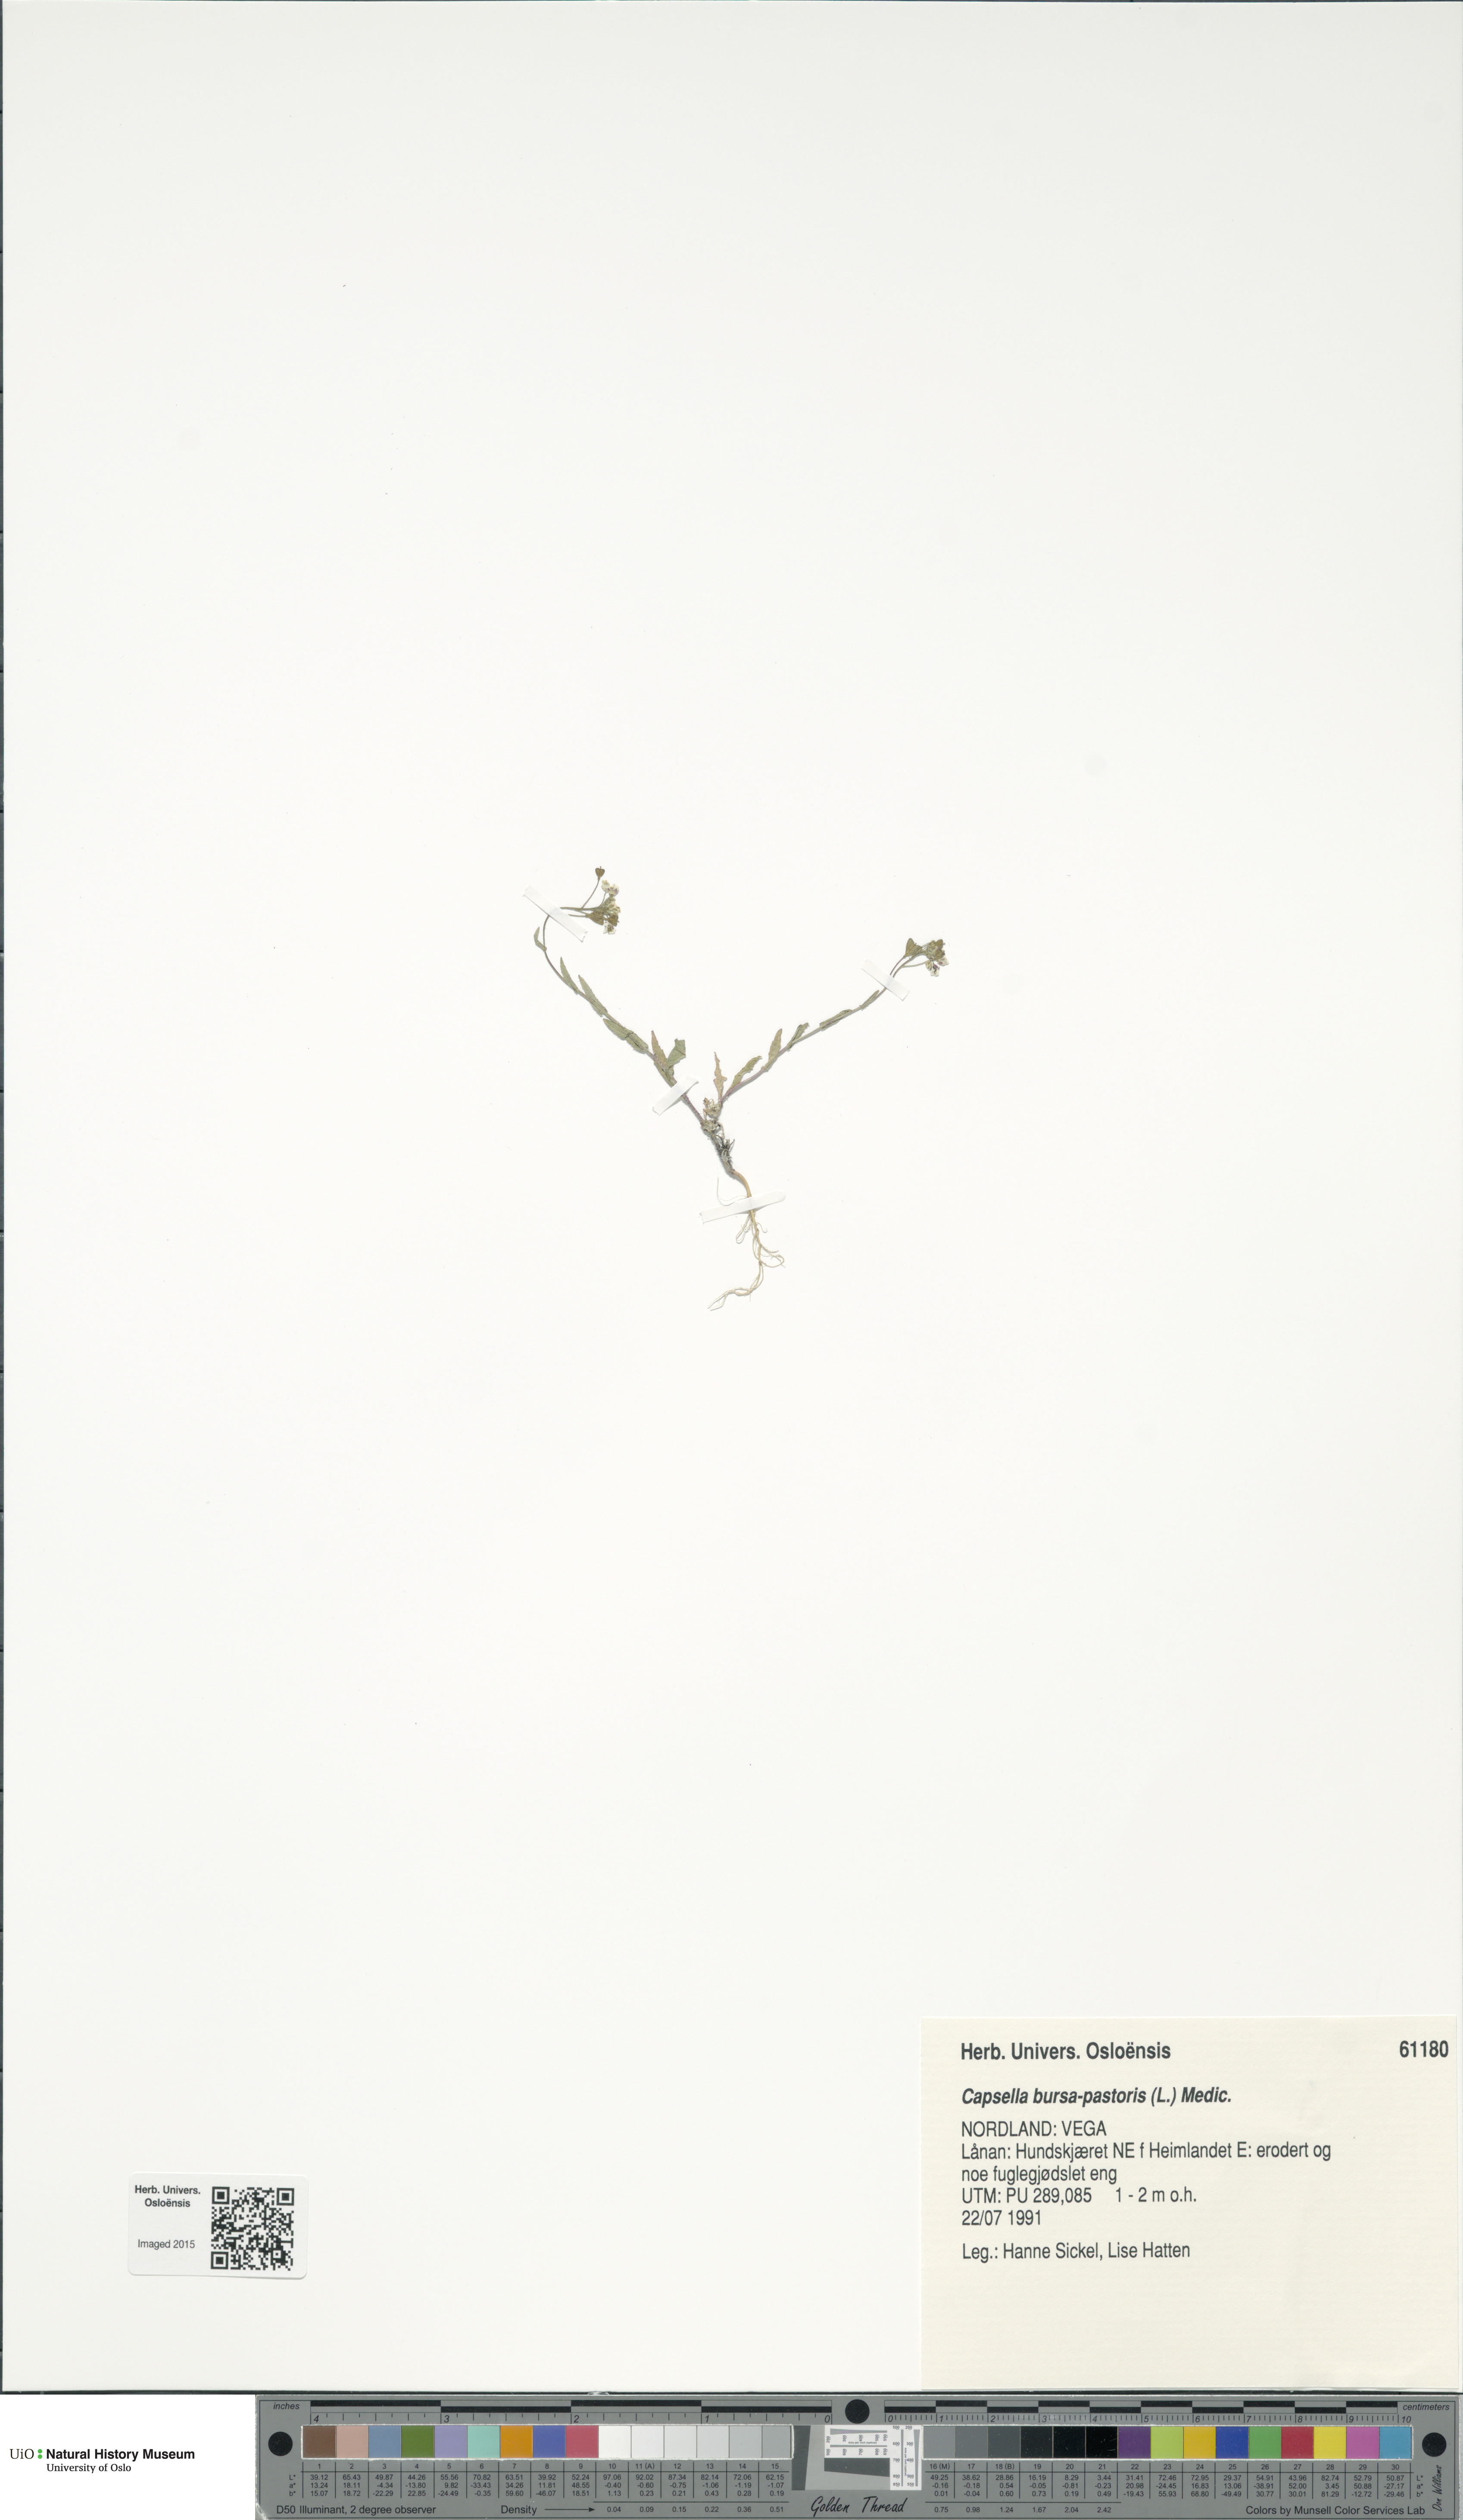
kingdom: Plantae
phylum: Tracheophyta
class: Magnoliopsida
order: Brassicales
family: Brassicaceae
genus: Capsella
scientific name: Capsella bursa-pastoris
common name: Shepherd's purse
